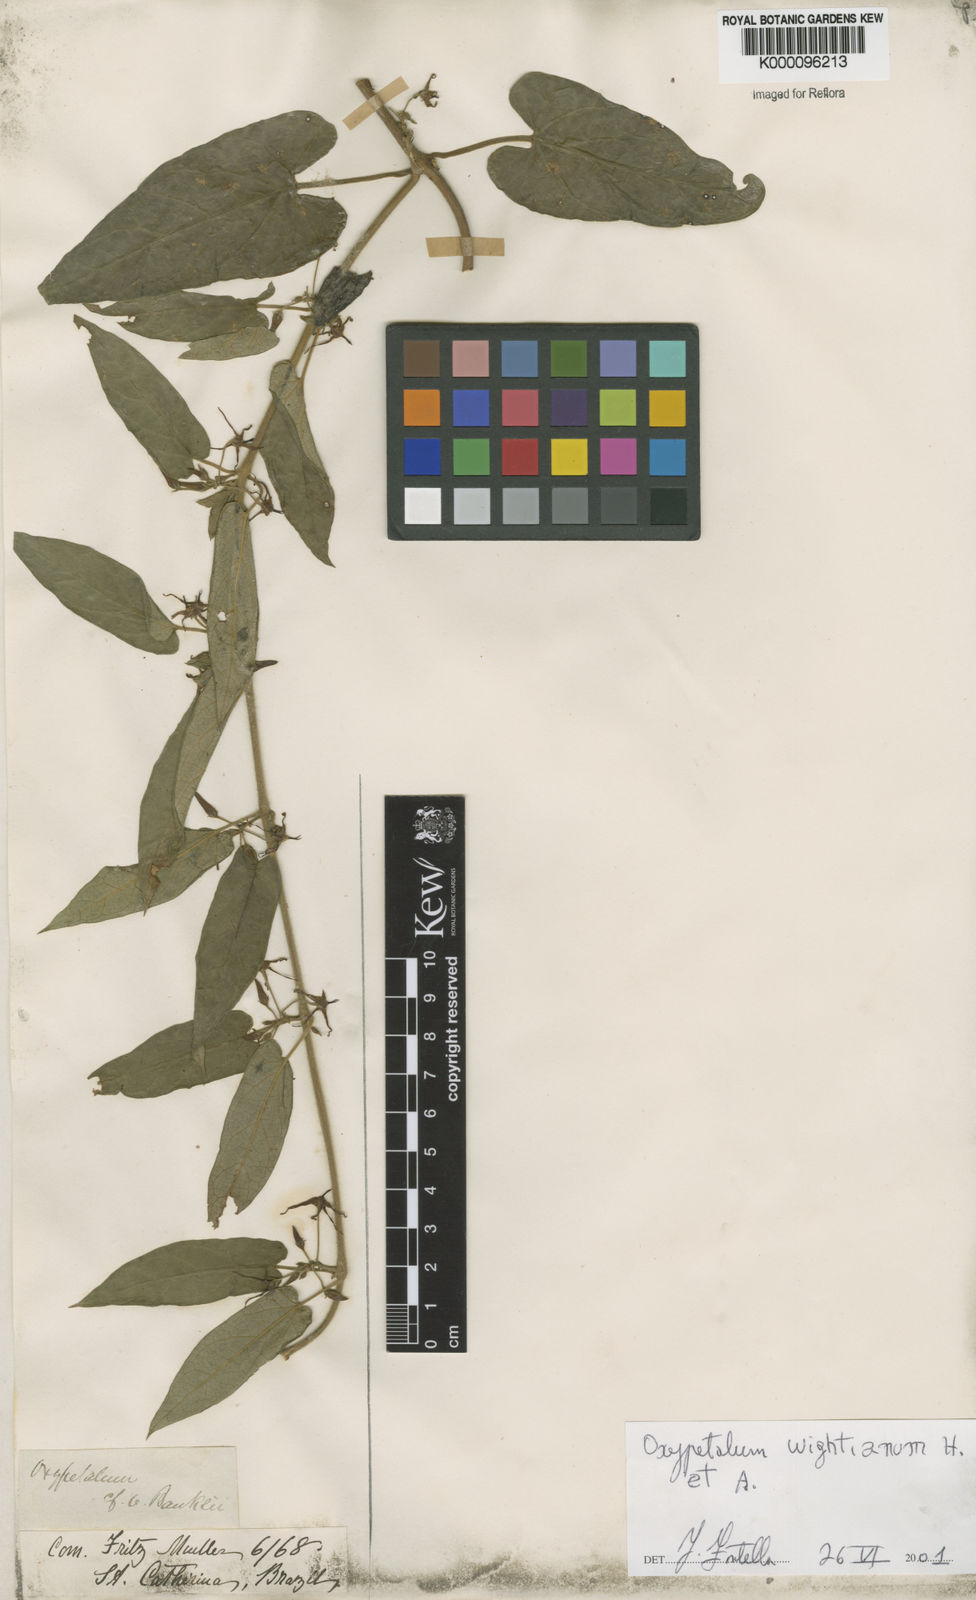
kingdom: Plantae
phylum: Tracheophyta
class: Magnoliopsida
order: Gentianales
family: Apocynaceae
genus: Oxypetalum
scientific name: Oxypetalum wightianum
